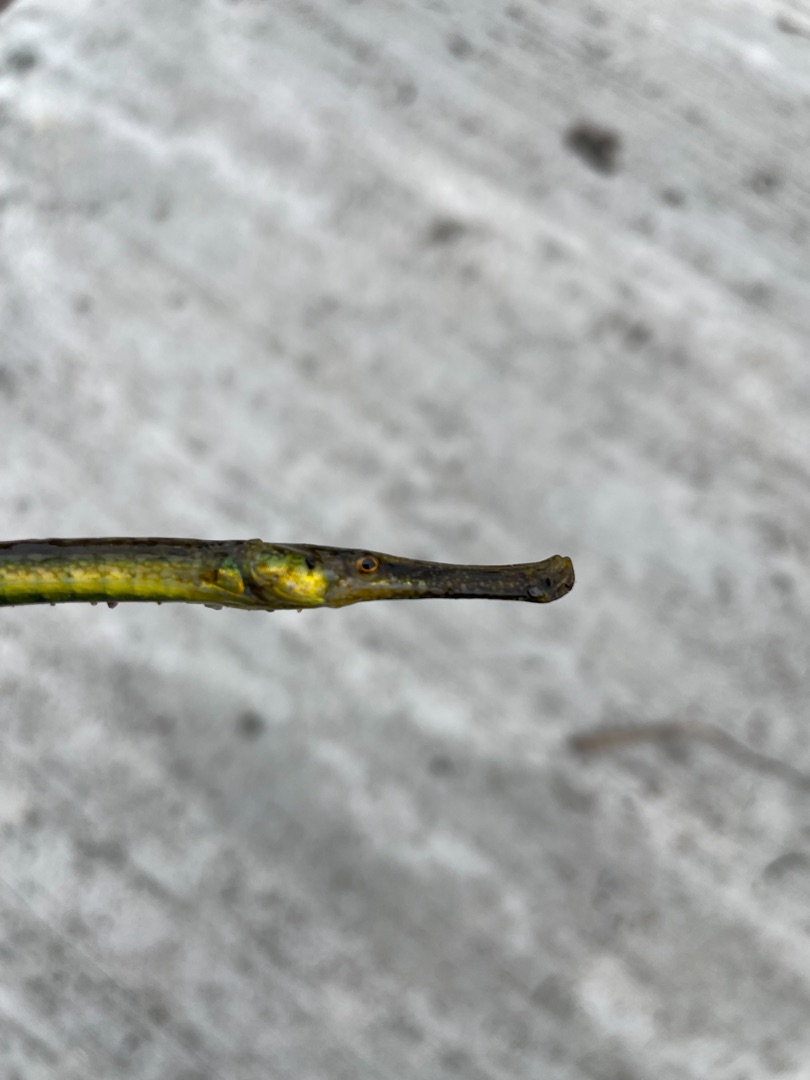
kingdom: Animalia
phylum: Chordata
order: Syngnathiformes
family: Syngnathidae
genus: Syngnathus
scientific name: Syngnathus typhle
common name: Almindelig tangnål
